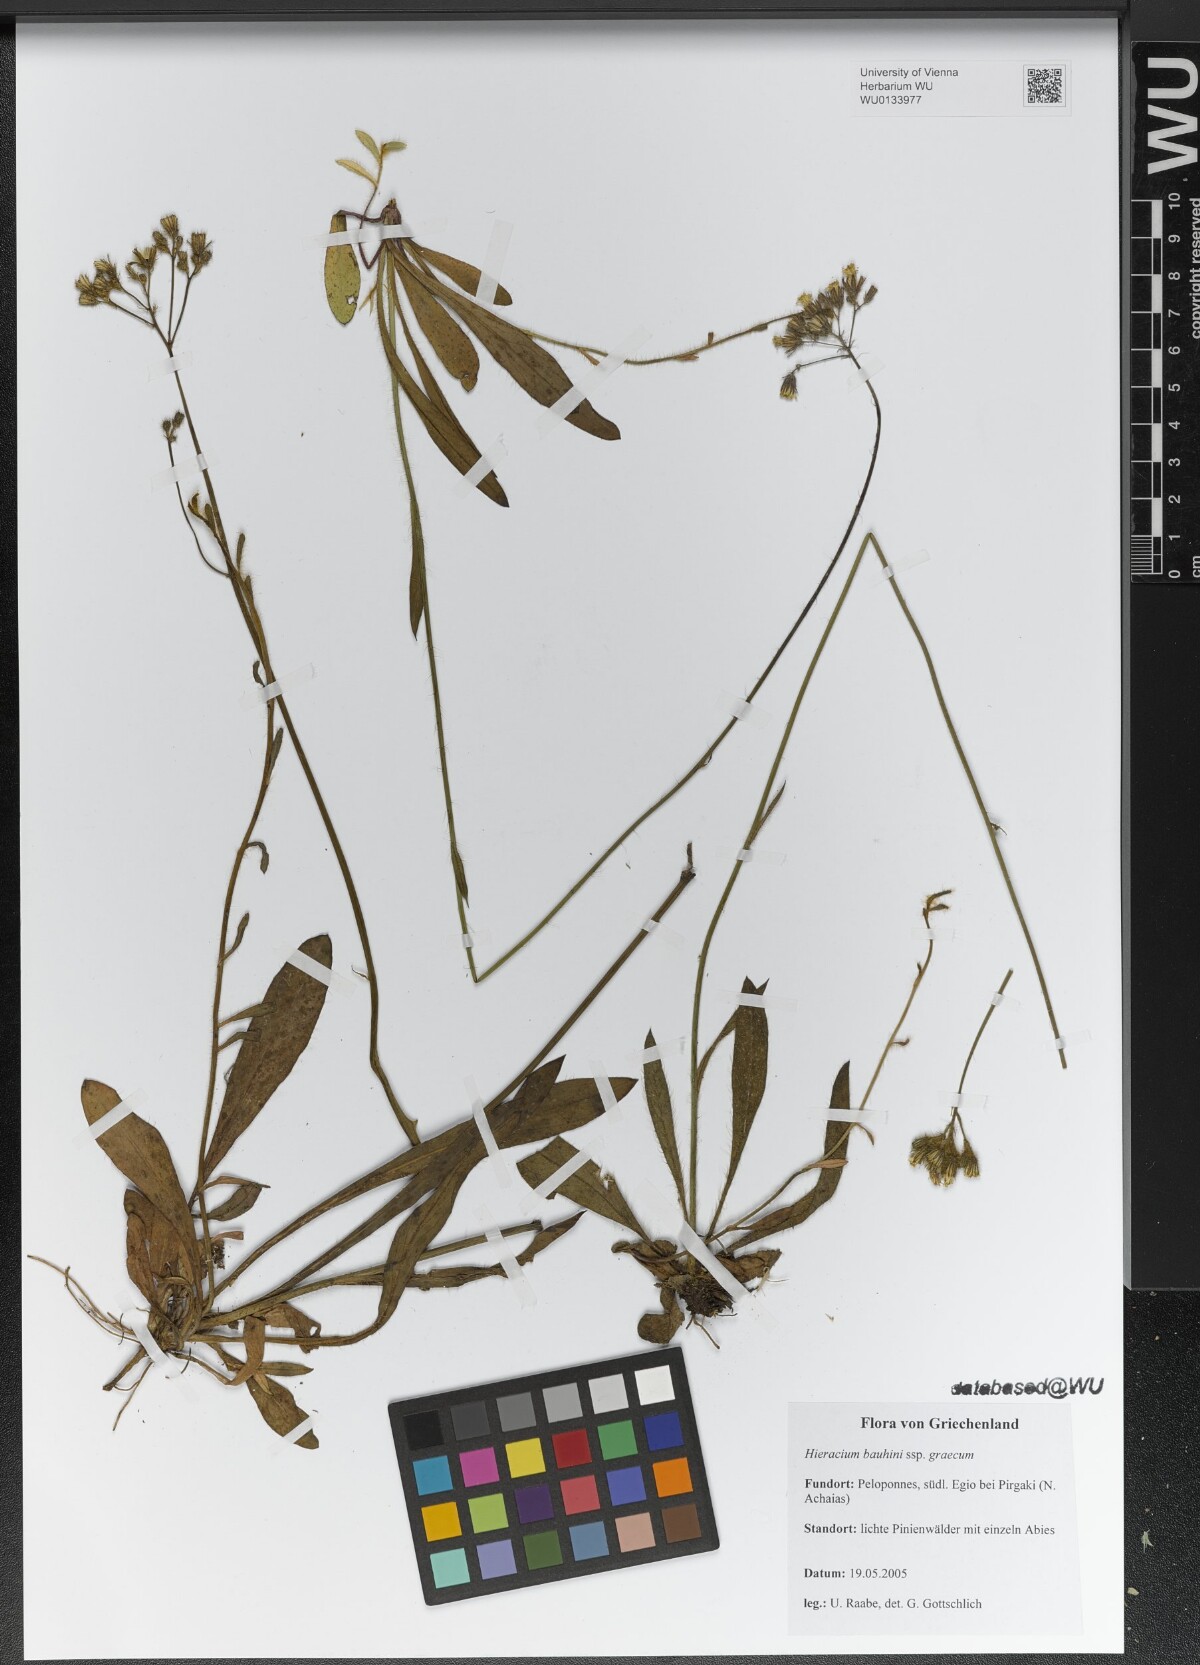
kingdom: Plantae
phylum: Tracheophyta
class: Magnoliopsida
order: Asterales
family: Asteraceae
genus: Pilosella
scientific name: Pilosella bauhini
